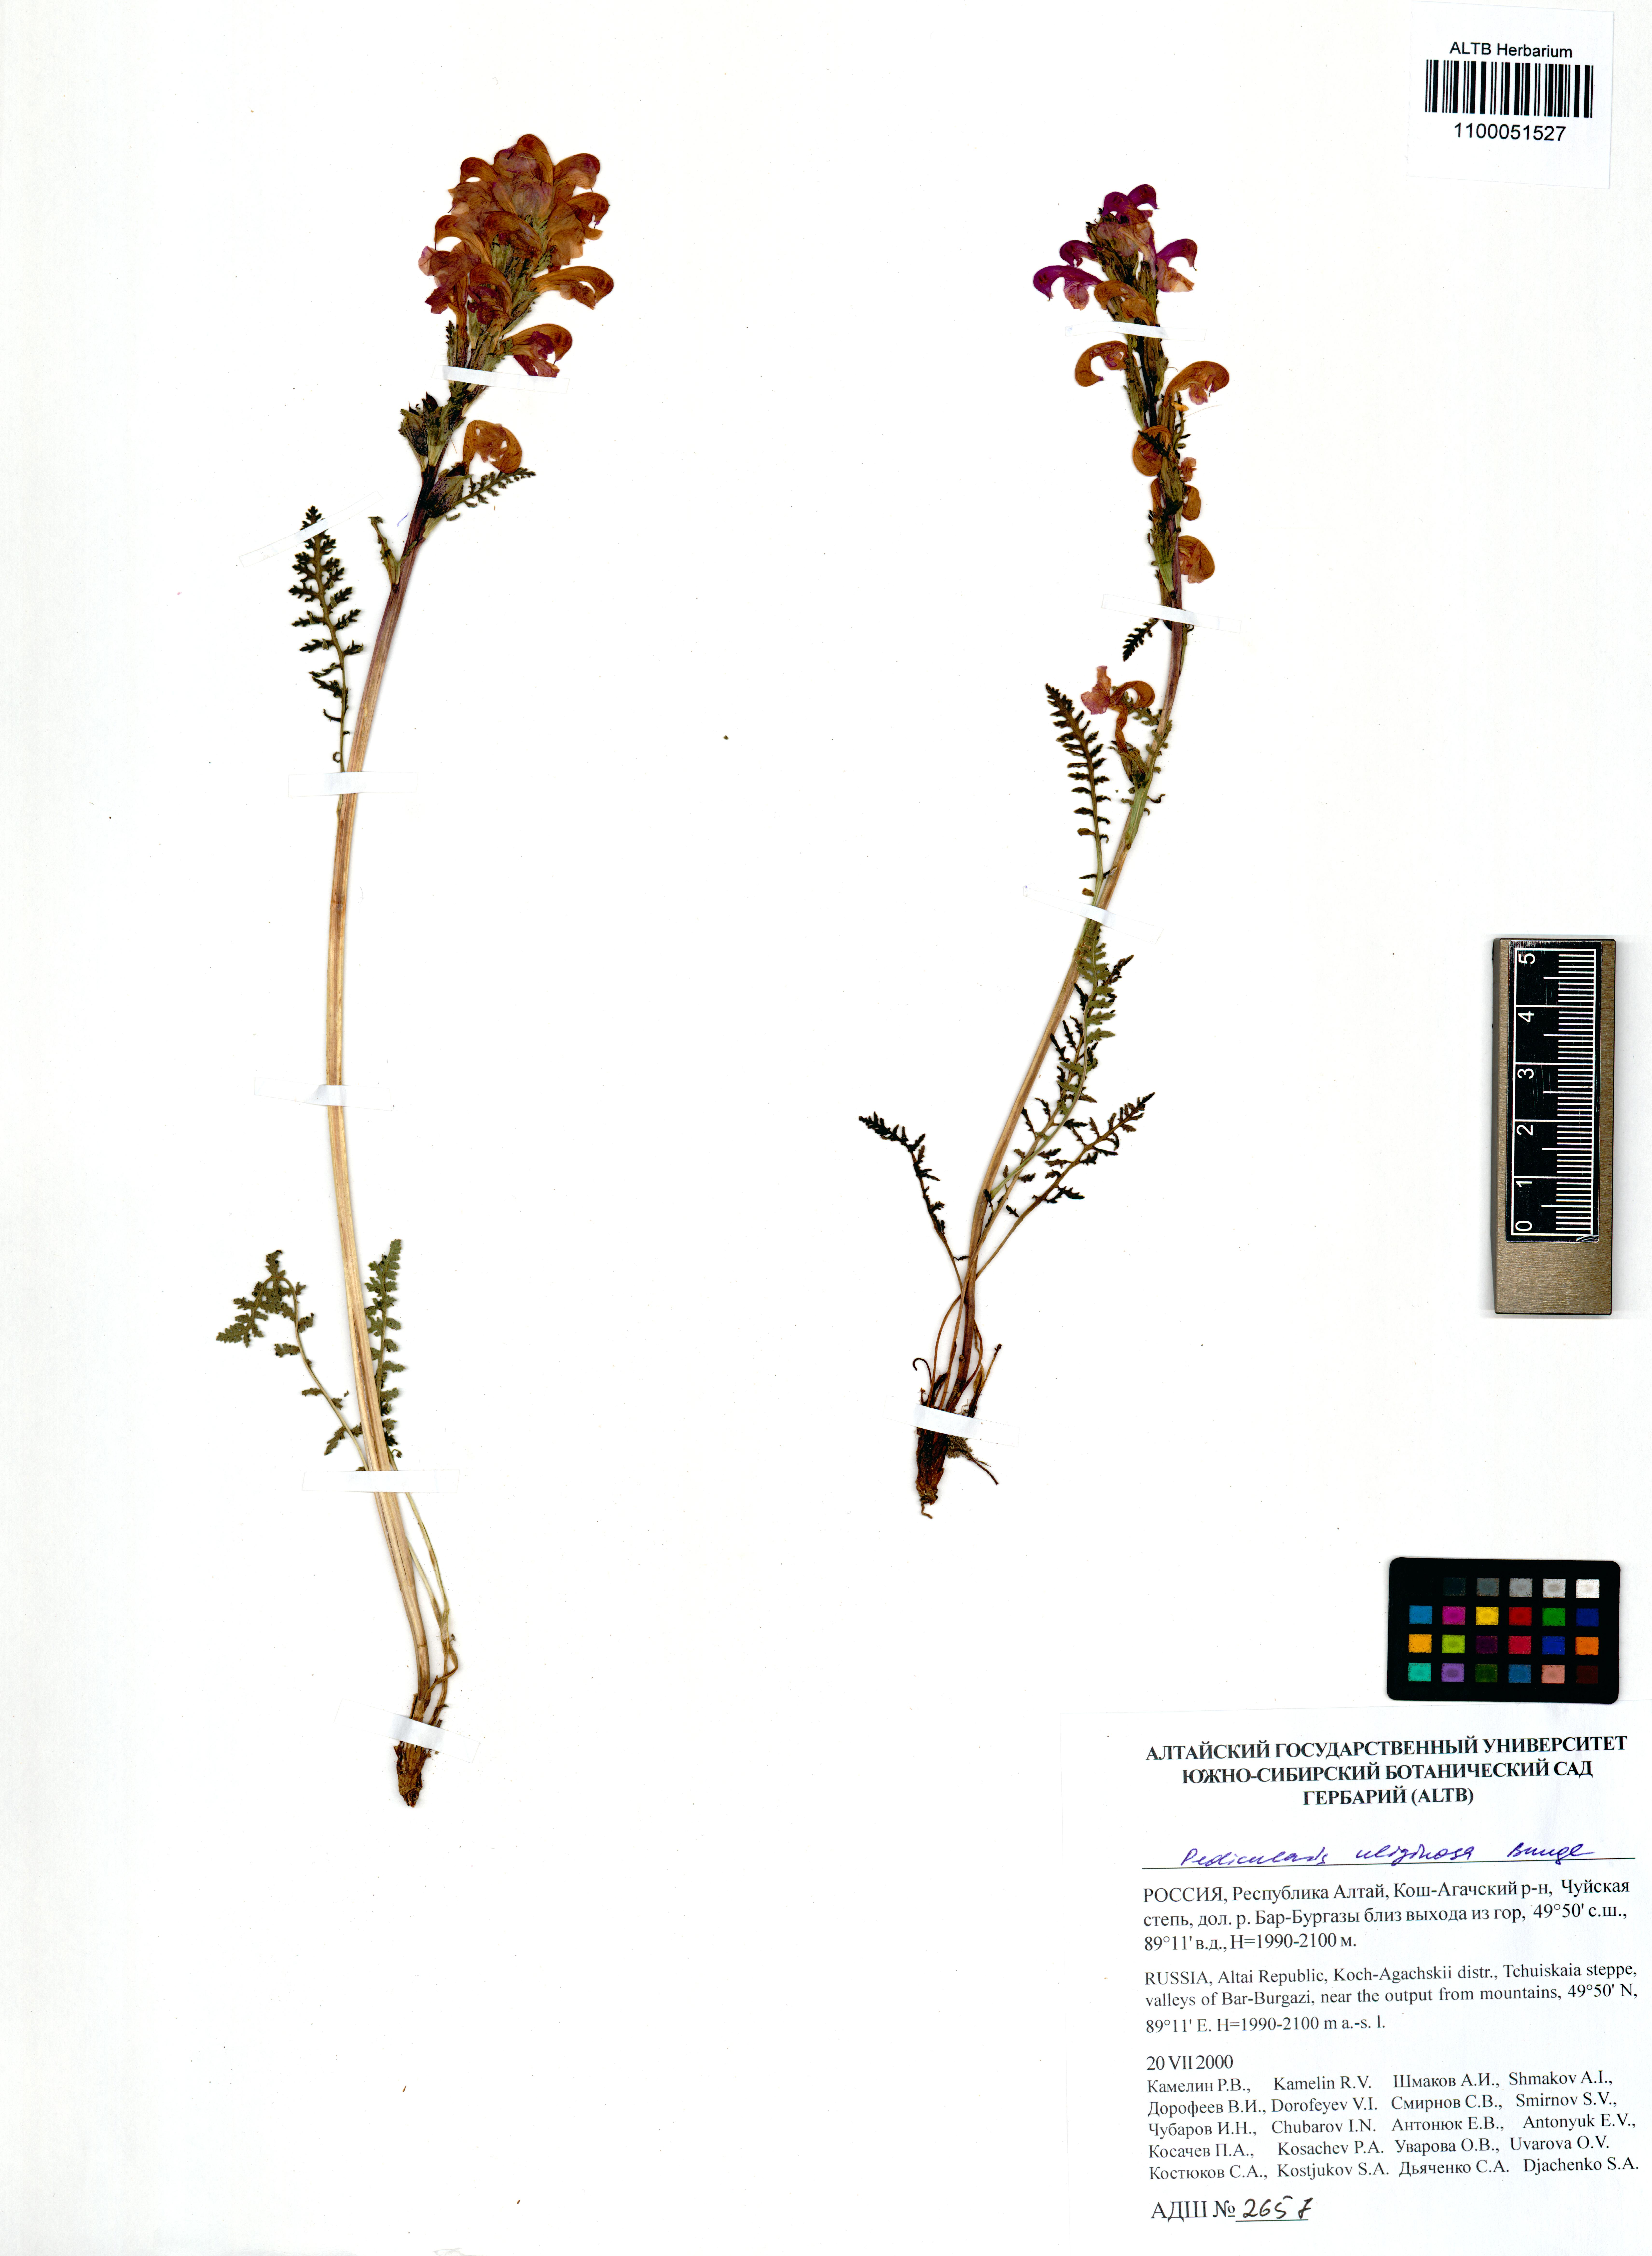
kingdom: Plantae
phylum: Tracheophyta
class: Magnoliopsida
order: Lamiales
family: Orobanchaceae
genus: Pedicularis
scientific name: Pedicularis uliginosa
